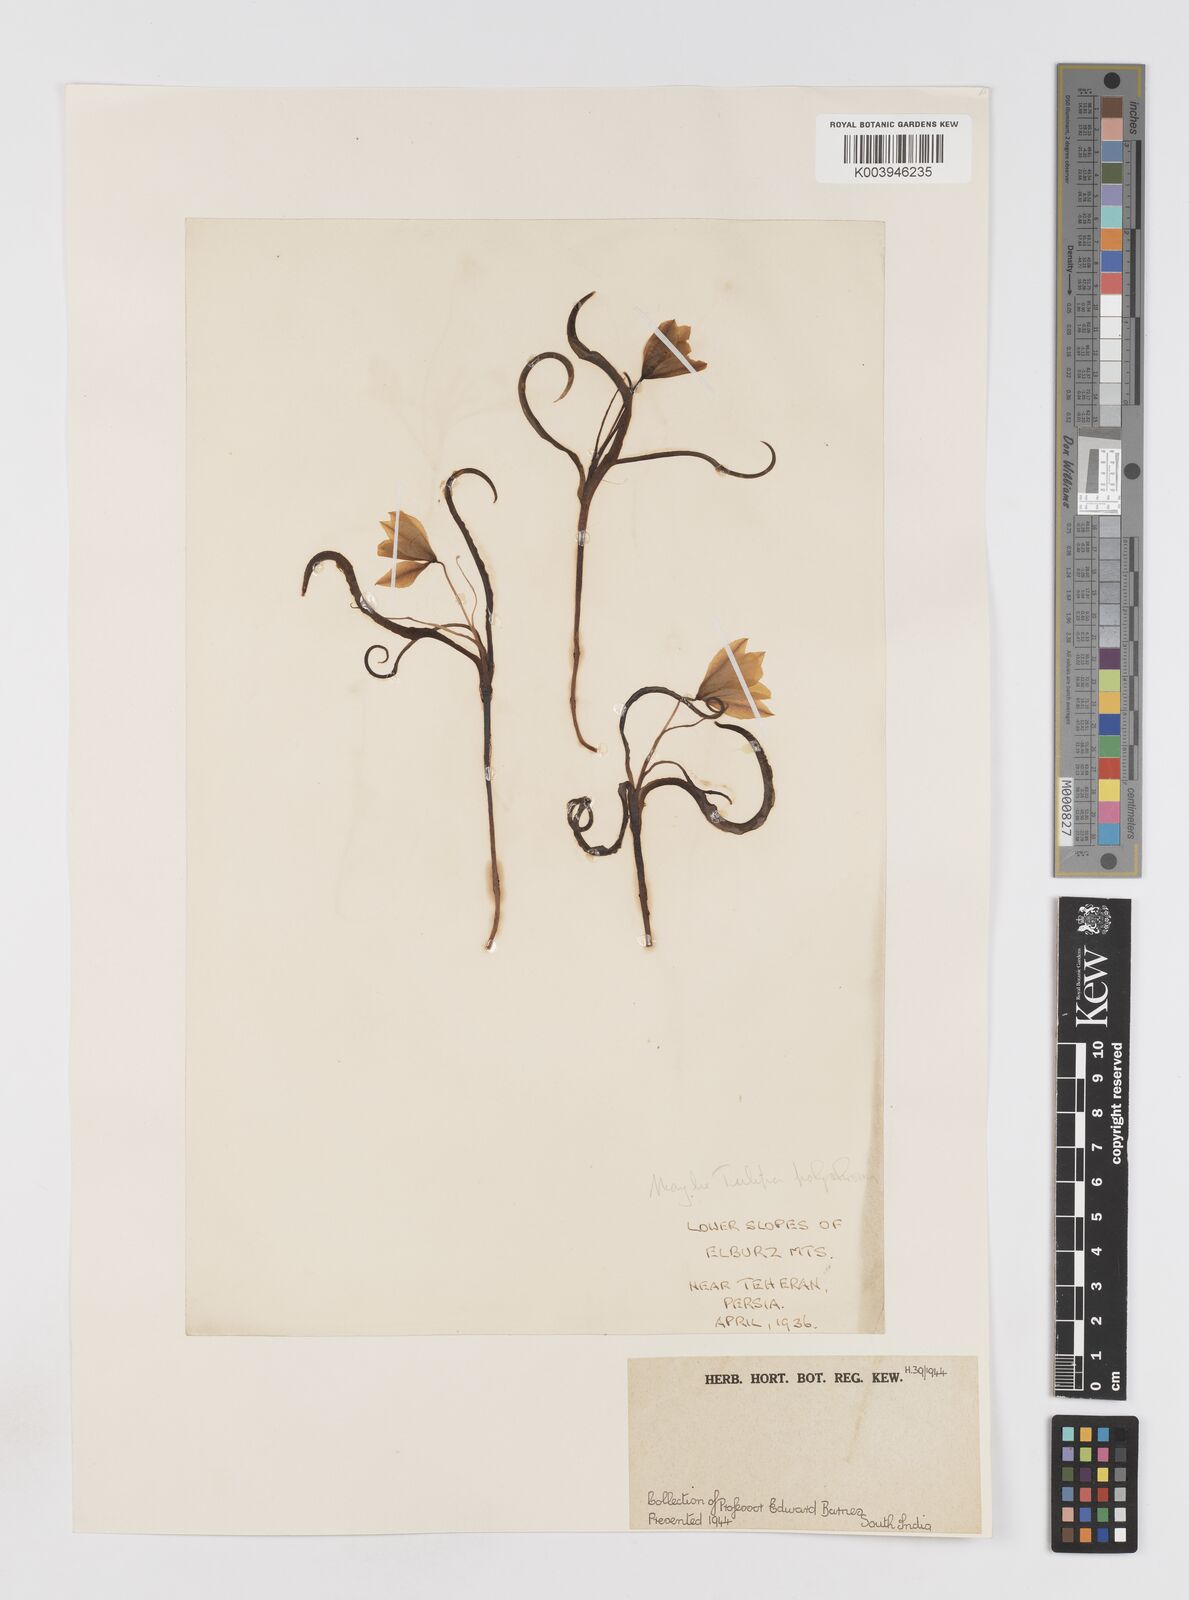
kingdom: Plantae
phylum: Tracheophyta
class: Liliopsida
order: Liliales
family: Liliaceae
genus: Tulipa
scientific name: Tulipa montana
